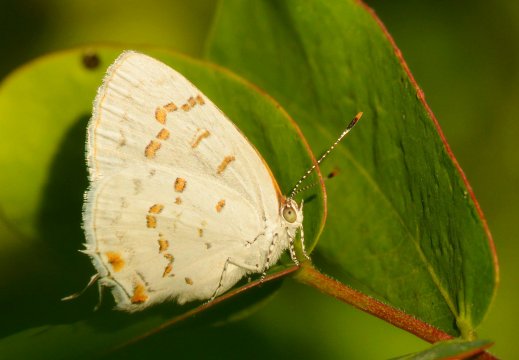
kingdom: Animalia
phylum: Arthropoda
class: Insecta
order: Lepidoptera
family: Lycaenidae
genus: Thecla
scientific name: Thecla una
